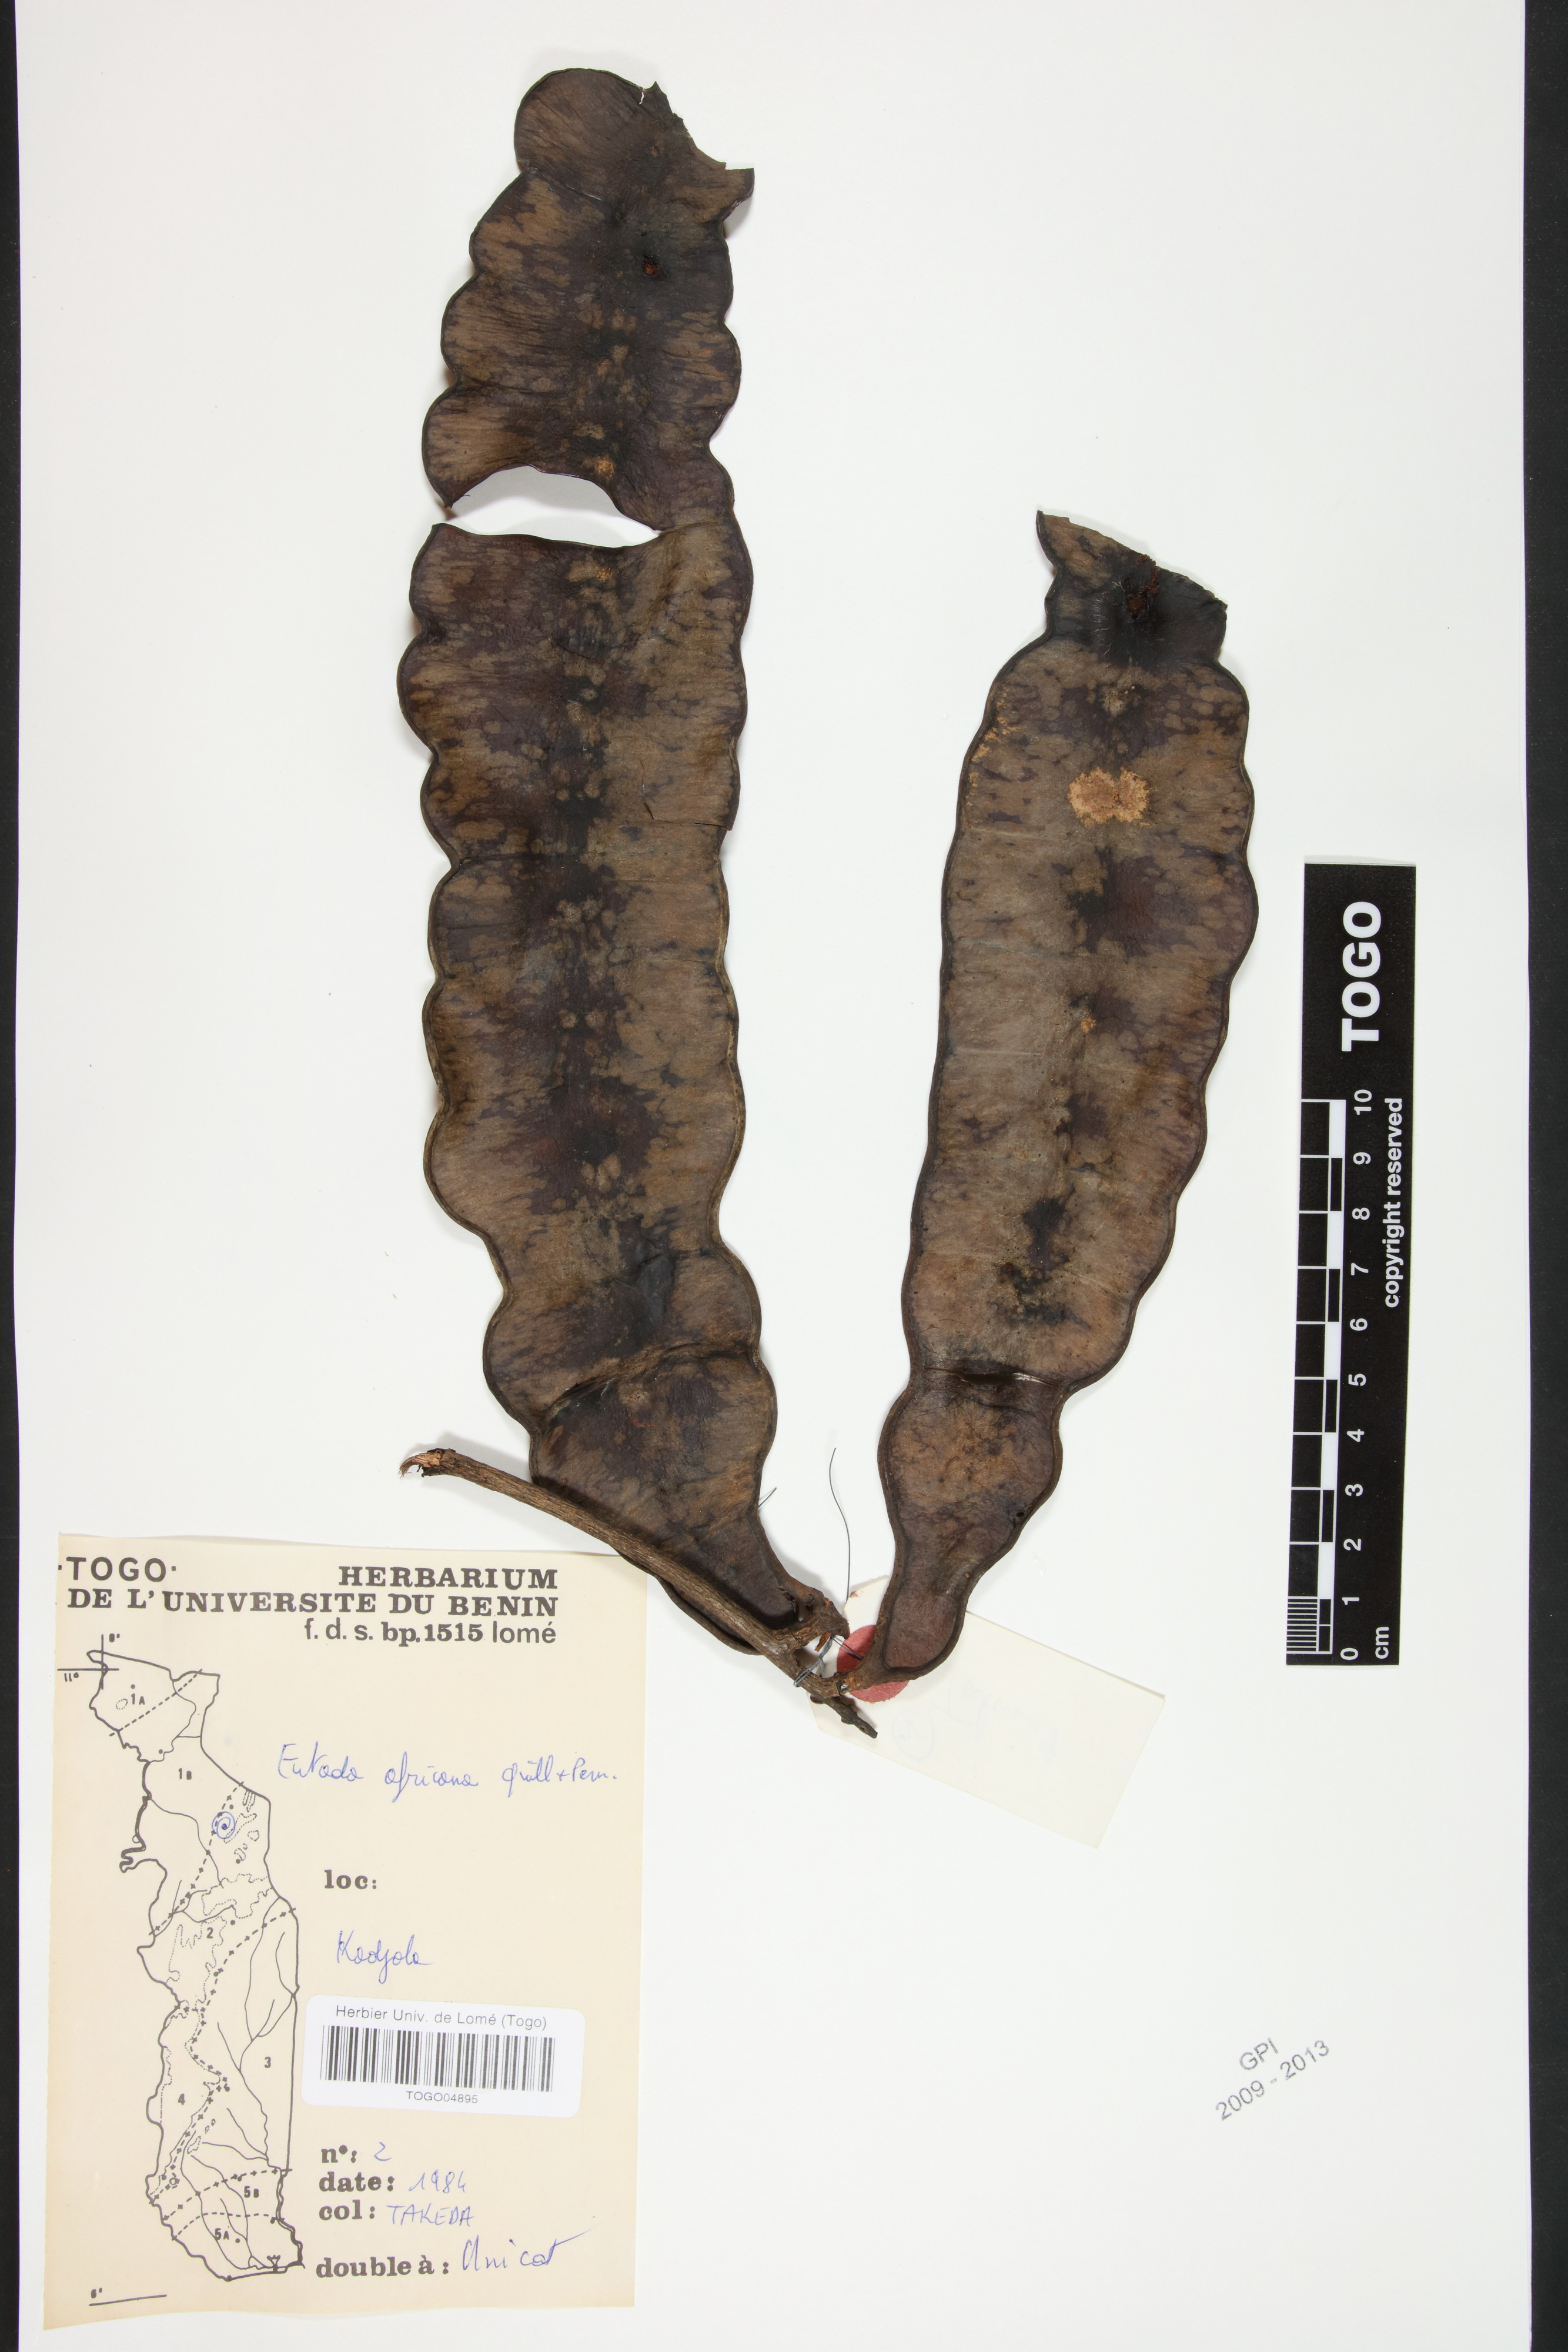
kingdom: Plantae
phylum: Tracheophyta
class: Magnoliopsida
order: Fabales
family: Fabaceae
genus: Entada
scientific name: Entada africana
